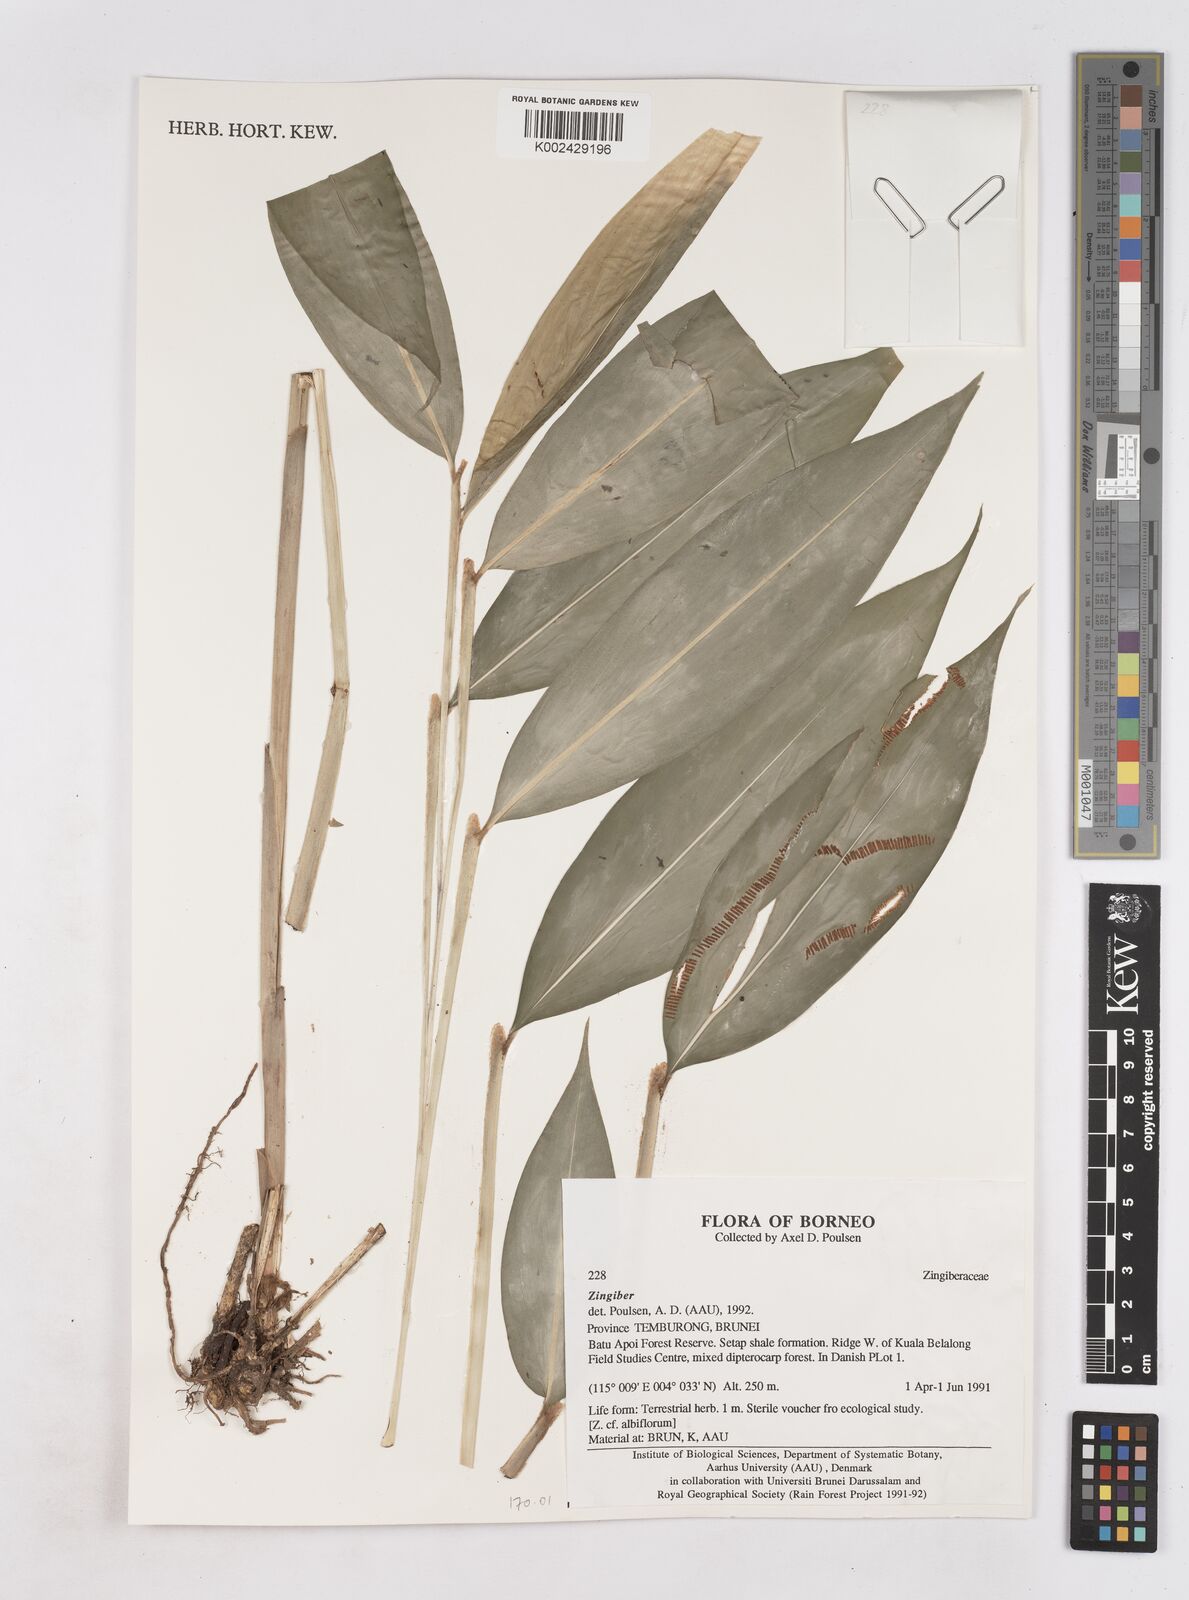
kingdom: Plantae
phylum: Tracheophyta
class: Liliopsida
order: Zingiberales
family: Zingiberaceae
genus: Zingiber
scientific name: Zingiber
